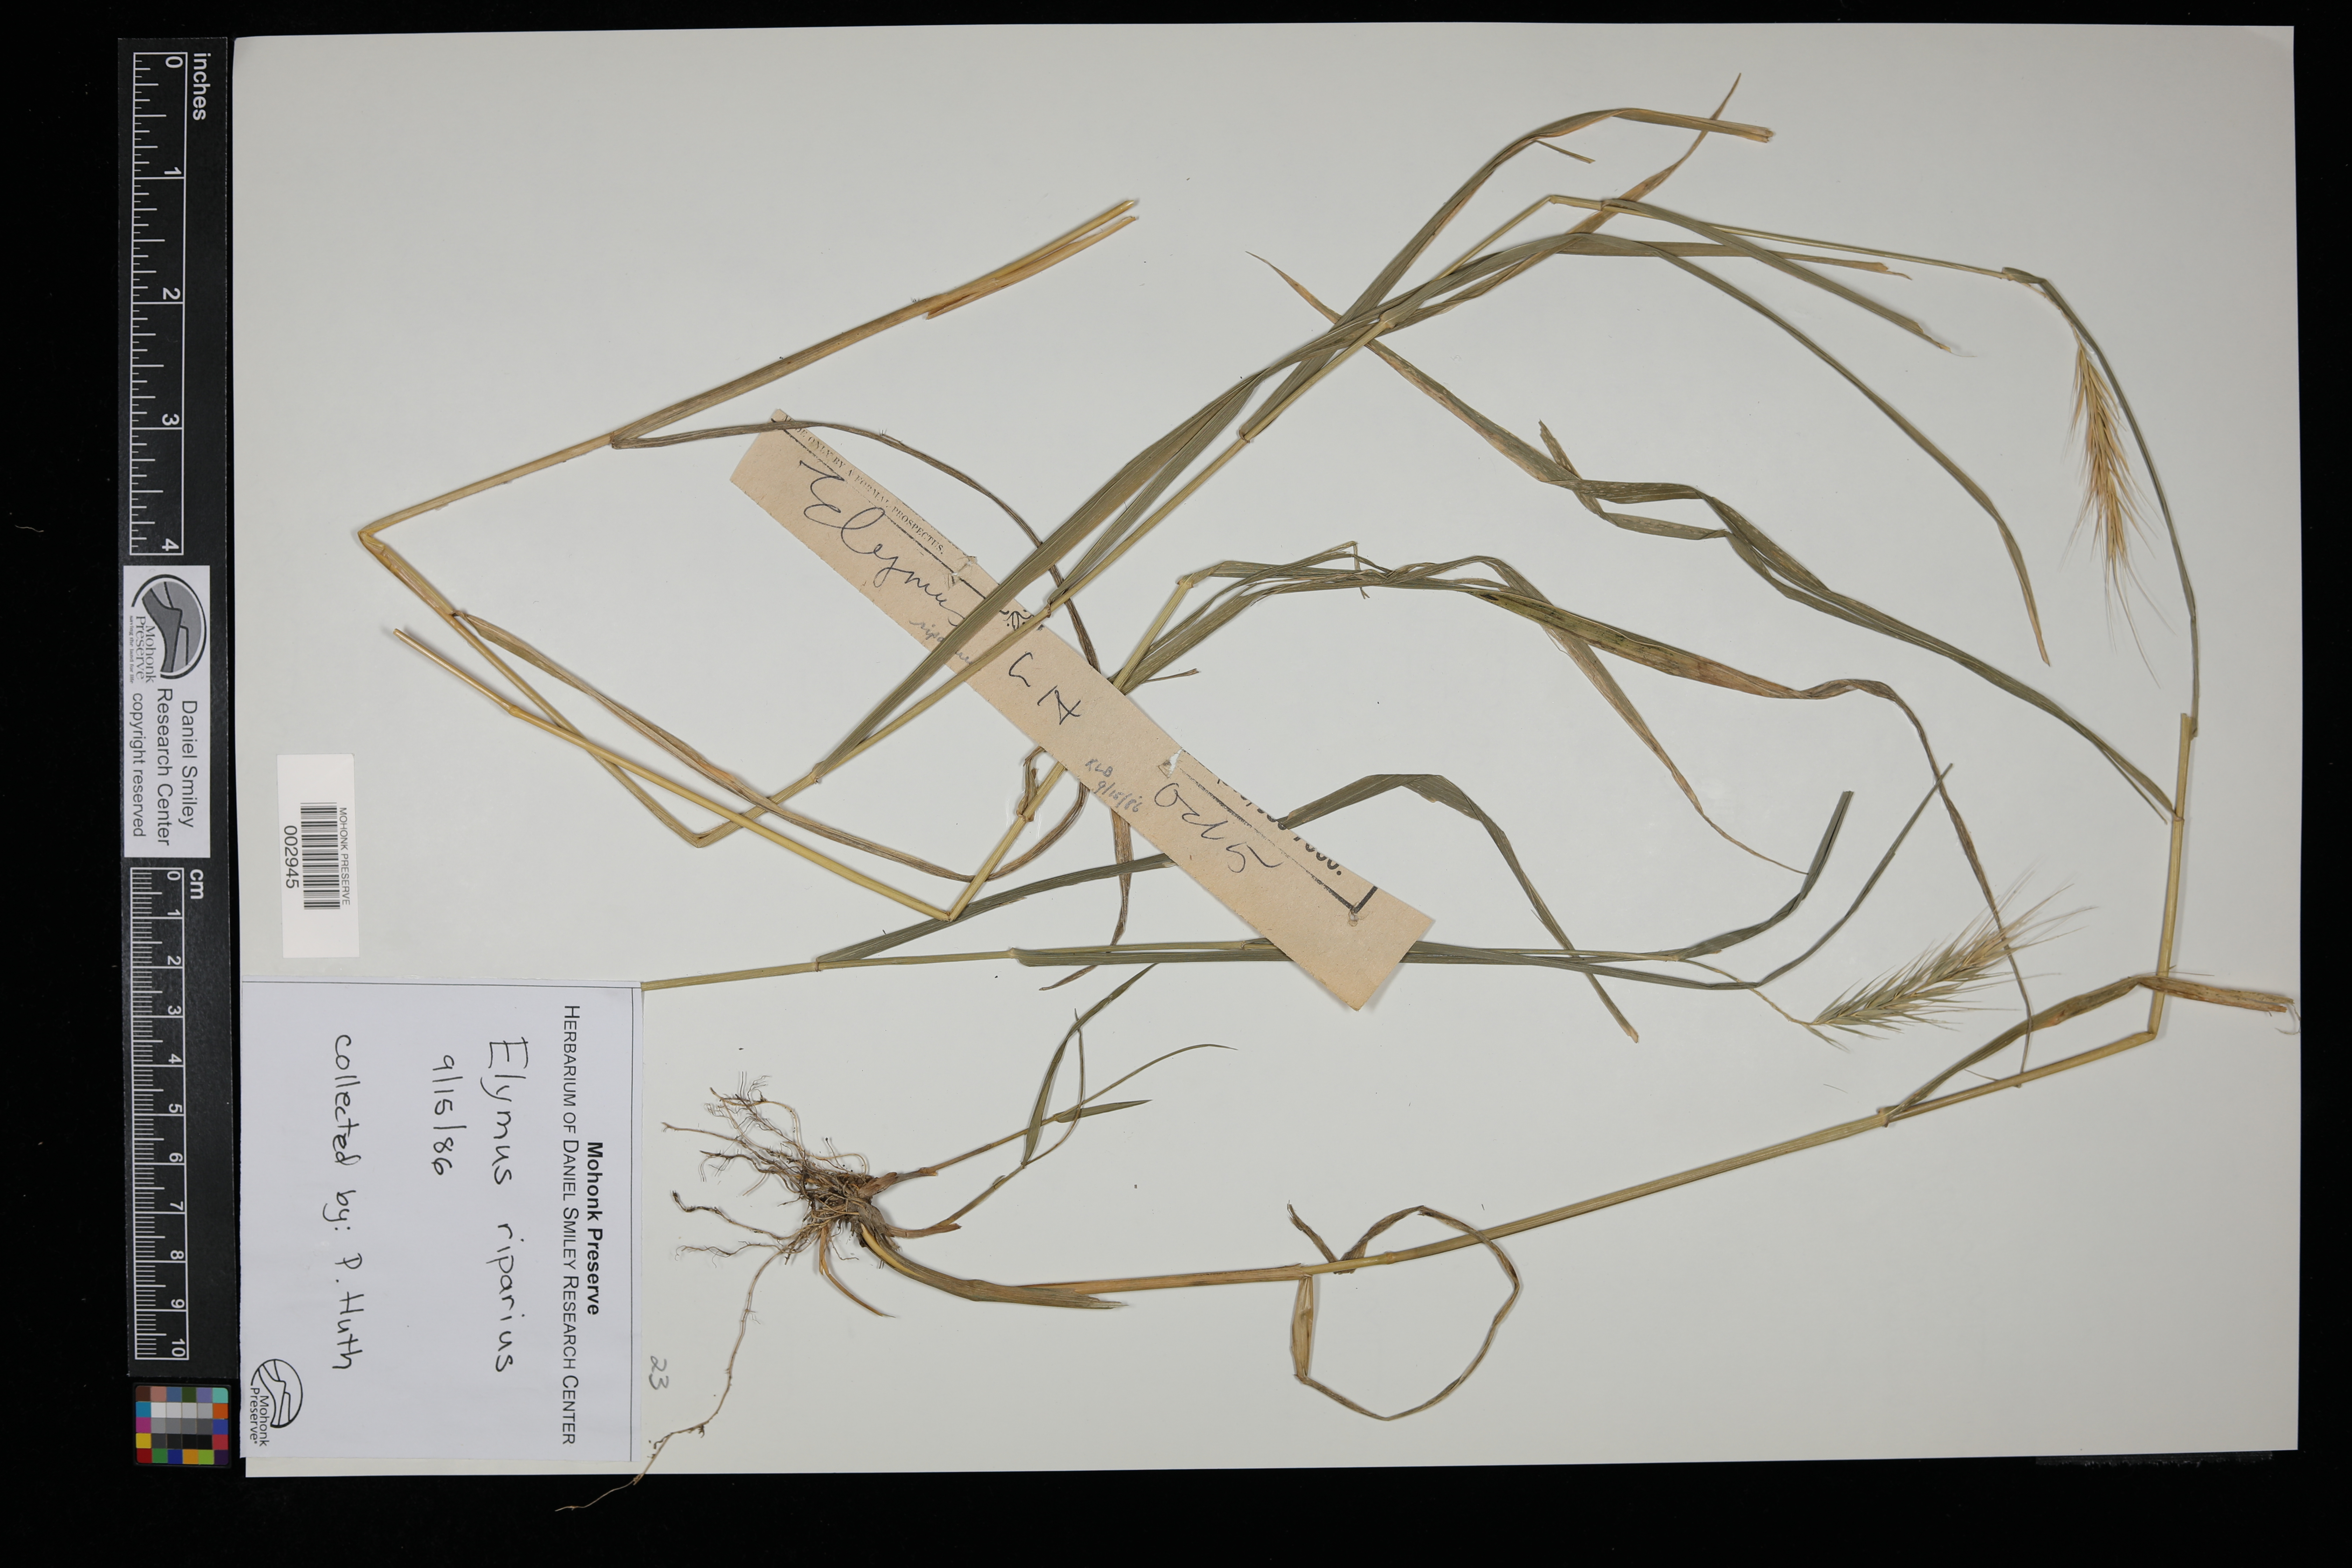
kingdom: Plantae
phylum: Tracheophyta
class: Liliopsida
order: Poales
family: Poaceae
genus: Elymus
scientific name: Elymus riparius
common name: Eastern riverbank wild rye
